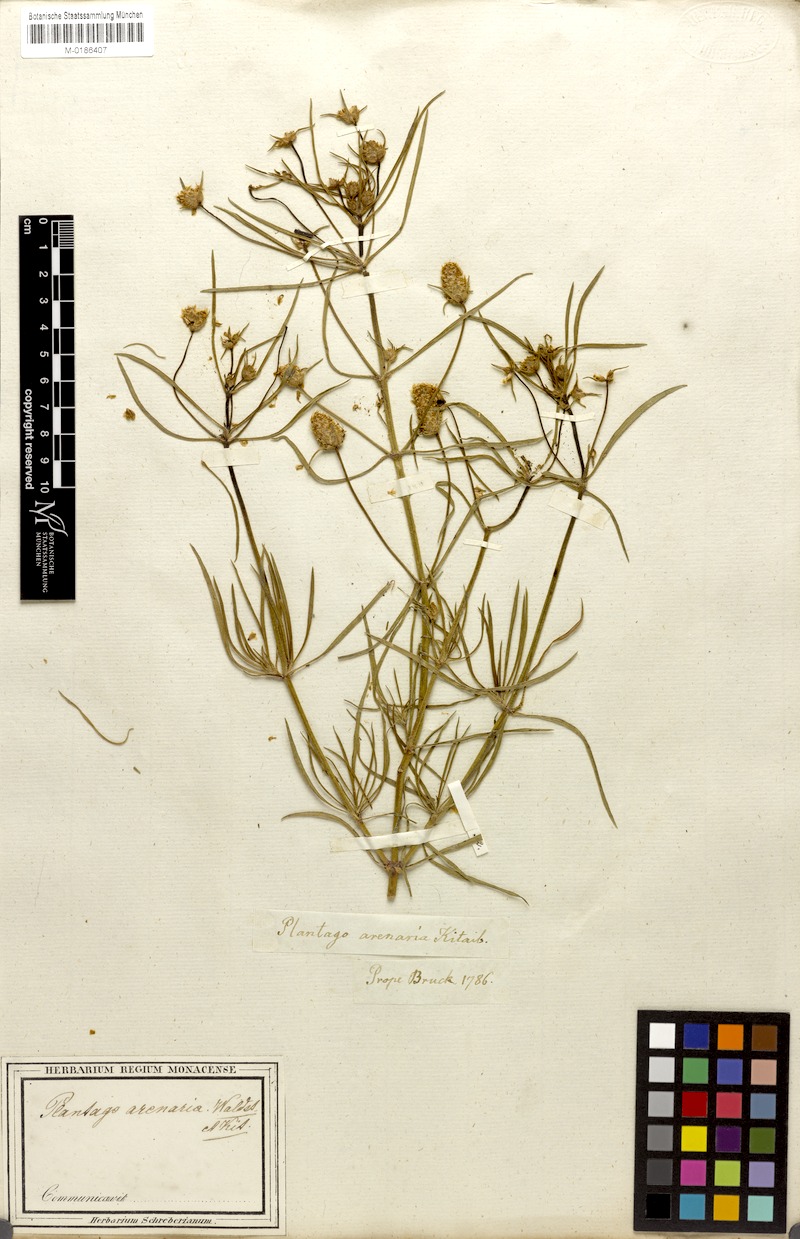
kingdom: Plantae
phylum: Tracheophyta
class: Magnoliopsida
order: Lamiales
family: Plantaginaceae
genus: Plantago
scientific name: Plantago arenaria
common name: Branched plantain
